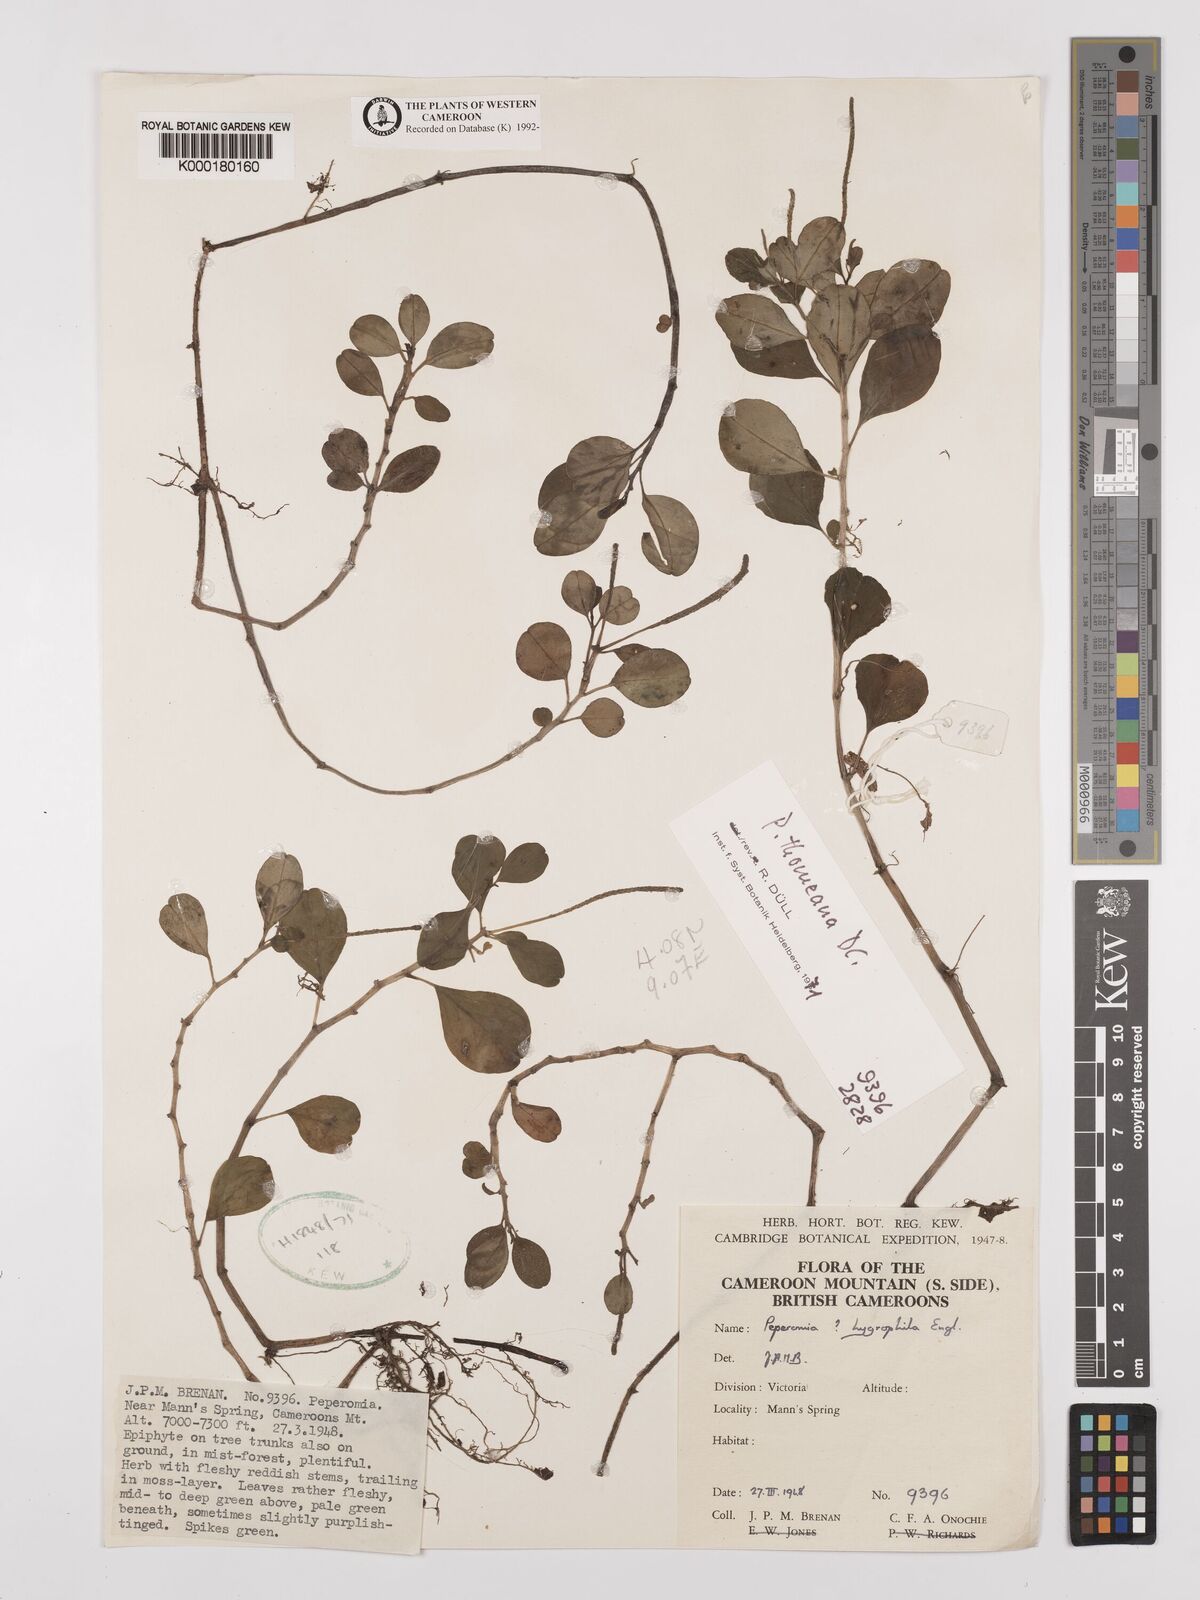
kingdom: Plantae
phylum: Tracheophyta
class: Magnoliopsida
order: Piperales
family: Piperaceae
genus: Peperomia
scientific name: Peperomia thomeana
